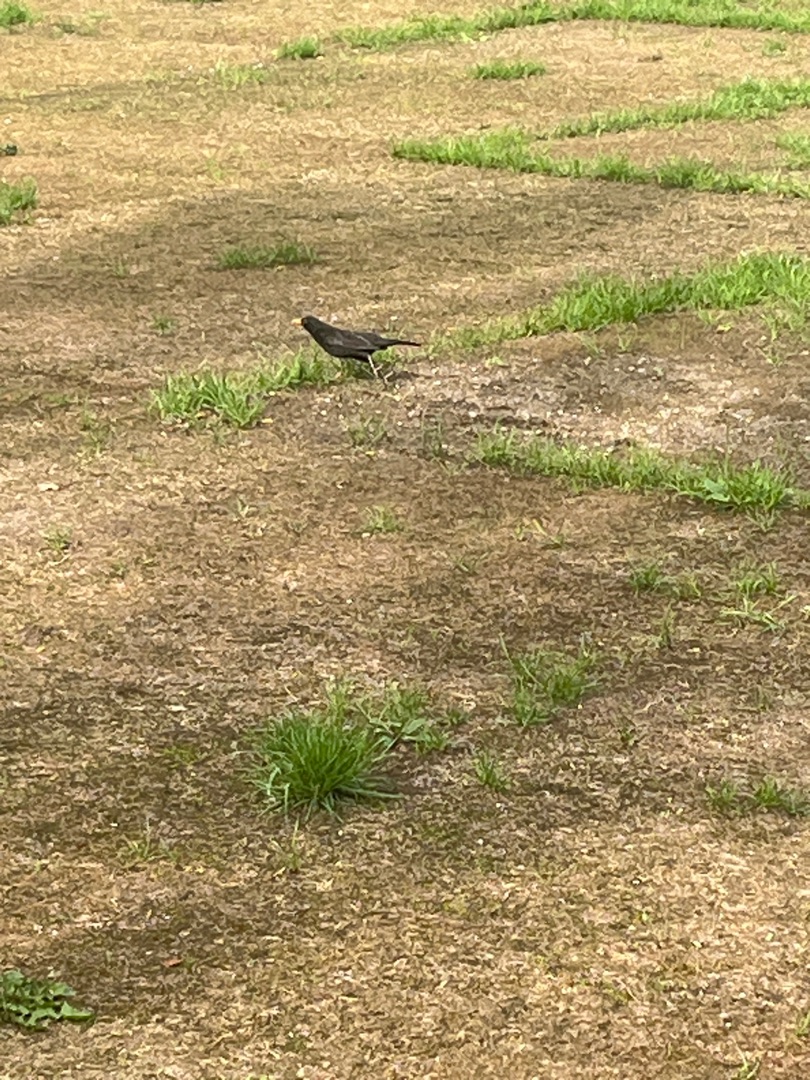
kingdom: Animalia
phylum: Chordata
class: Aves
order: Passeriformes
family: Turdidae
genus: Turdus
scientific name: Turdus merula
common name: Solsort
